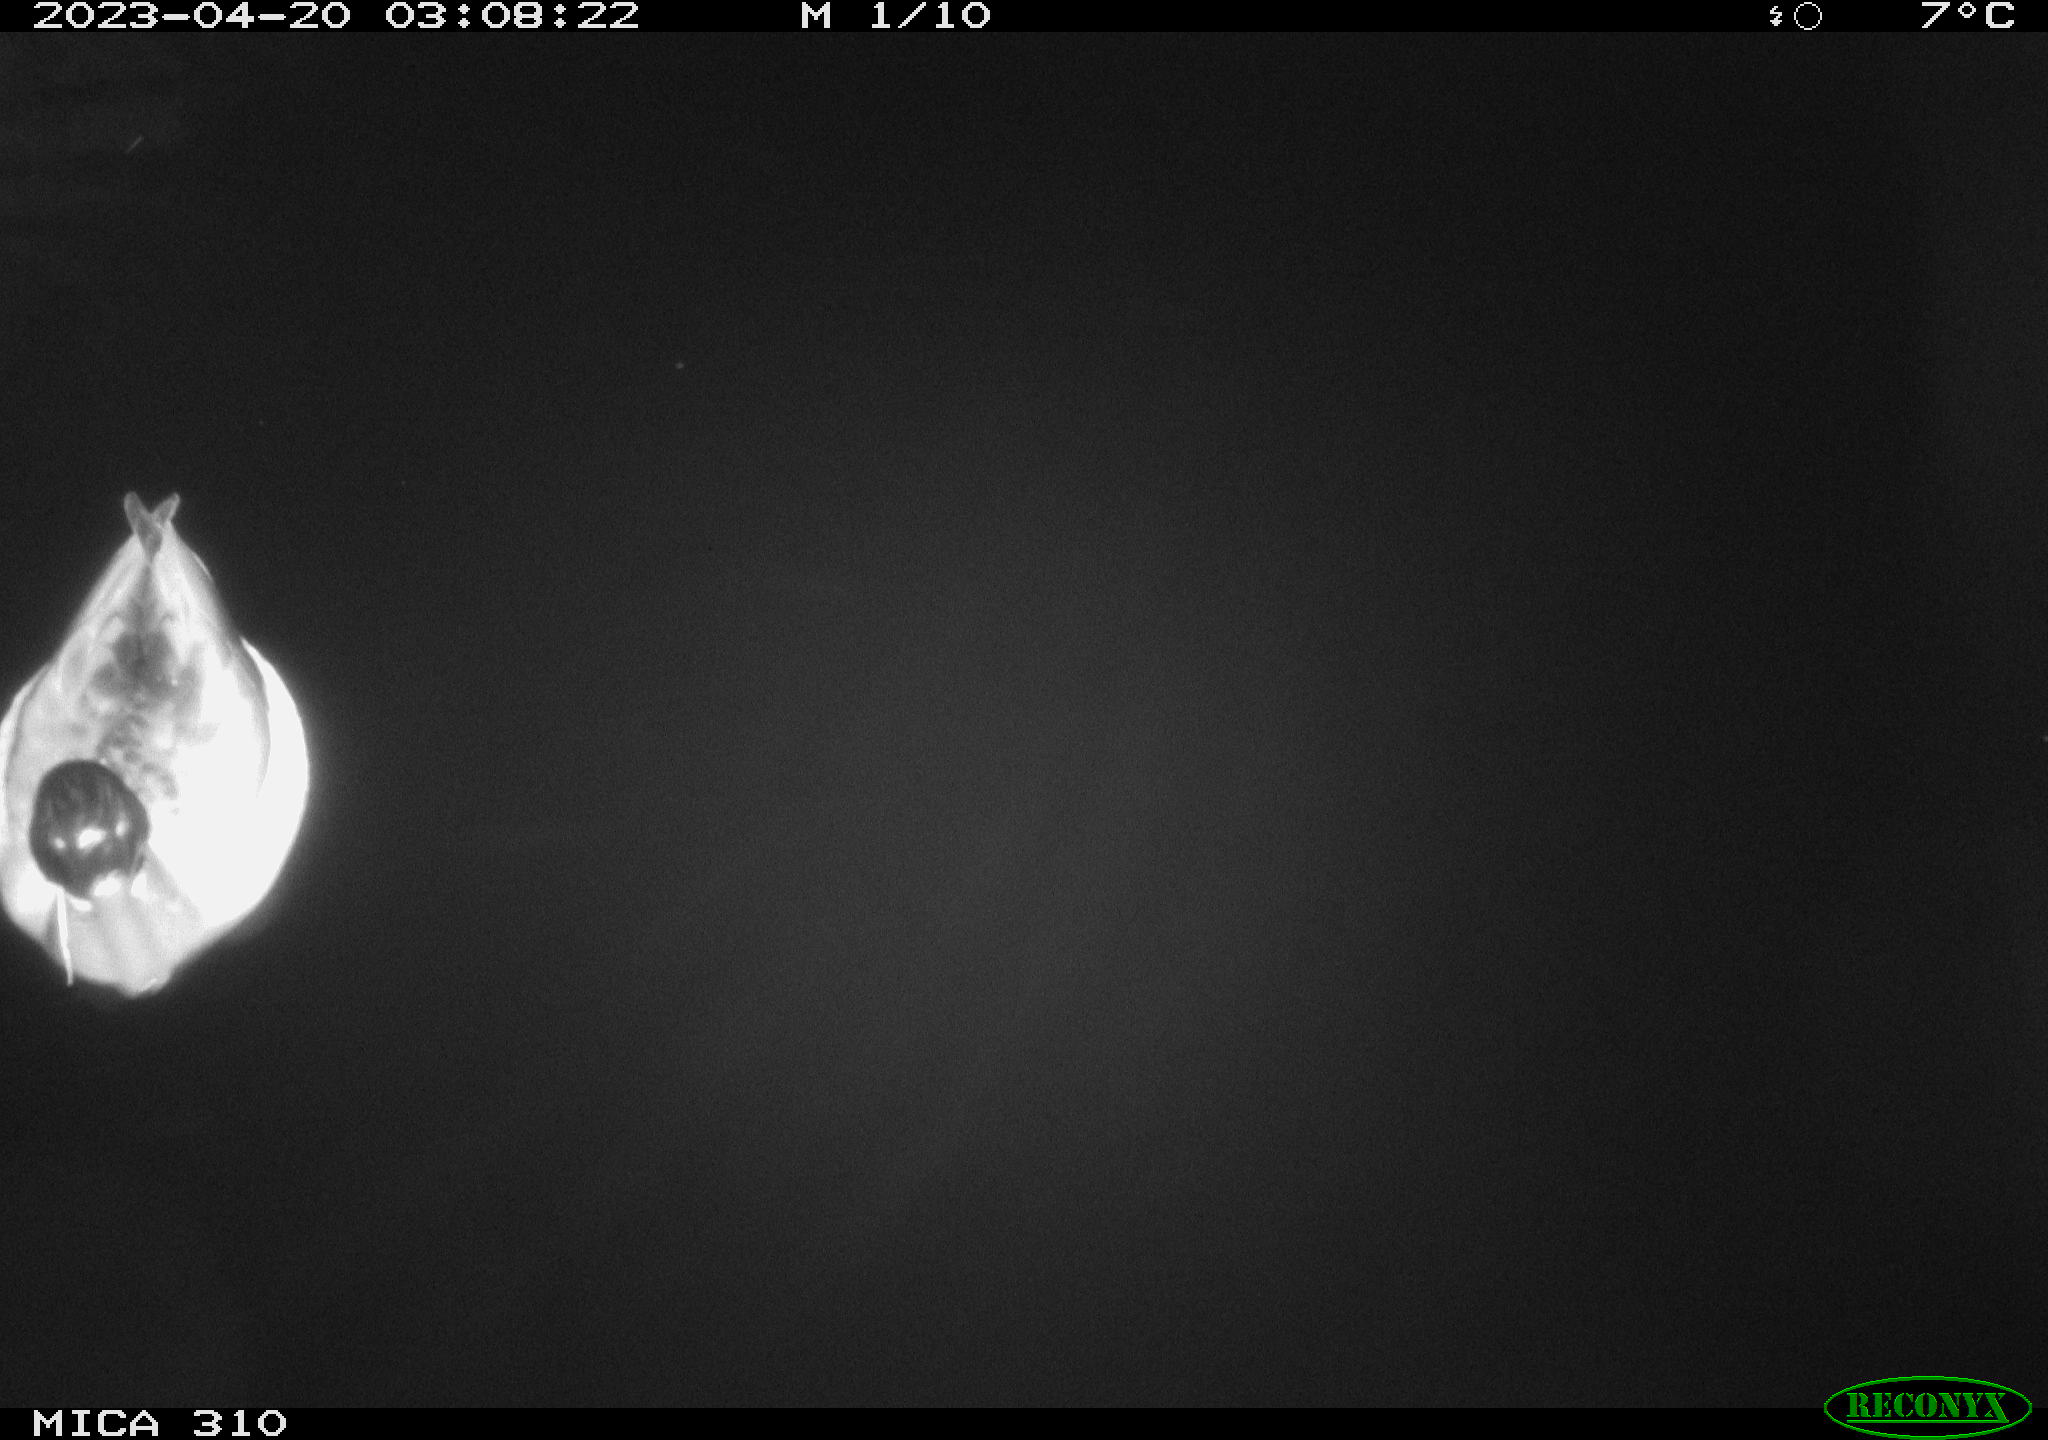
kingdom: Animalia
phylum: Chordata
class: Aves
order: Anseriformes
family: Anatidae
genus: Anas
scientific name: Anas
